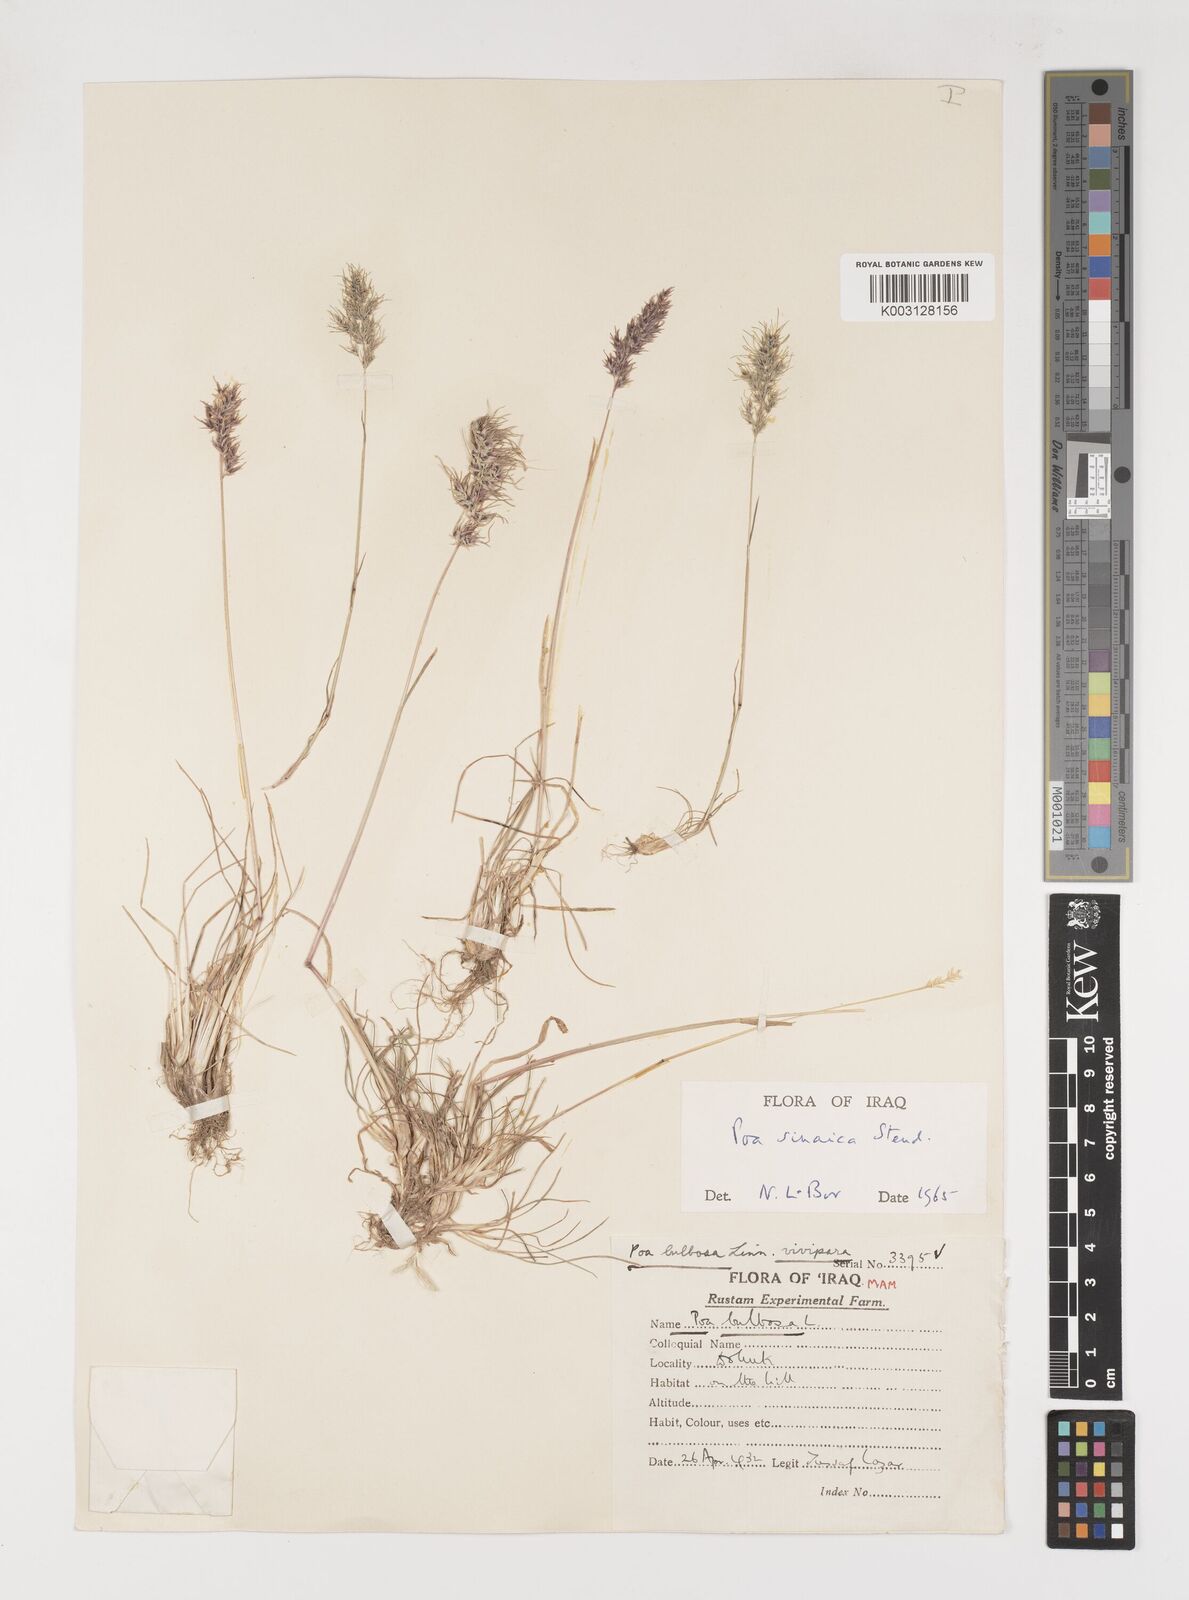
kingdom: Plantae
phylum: Tracheophyta
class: Liliopsida
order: Poales
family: Poaceae
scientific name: Poaceae
